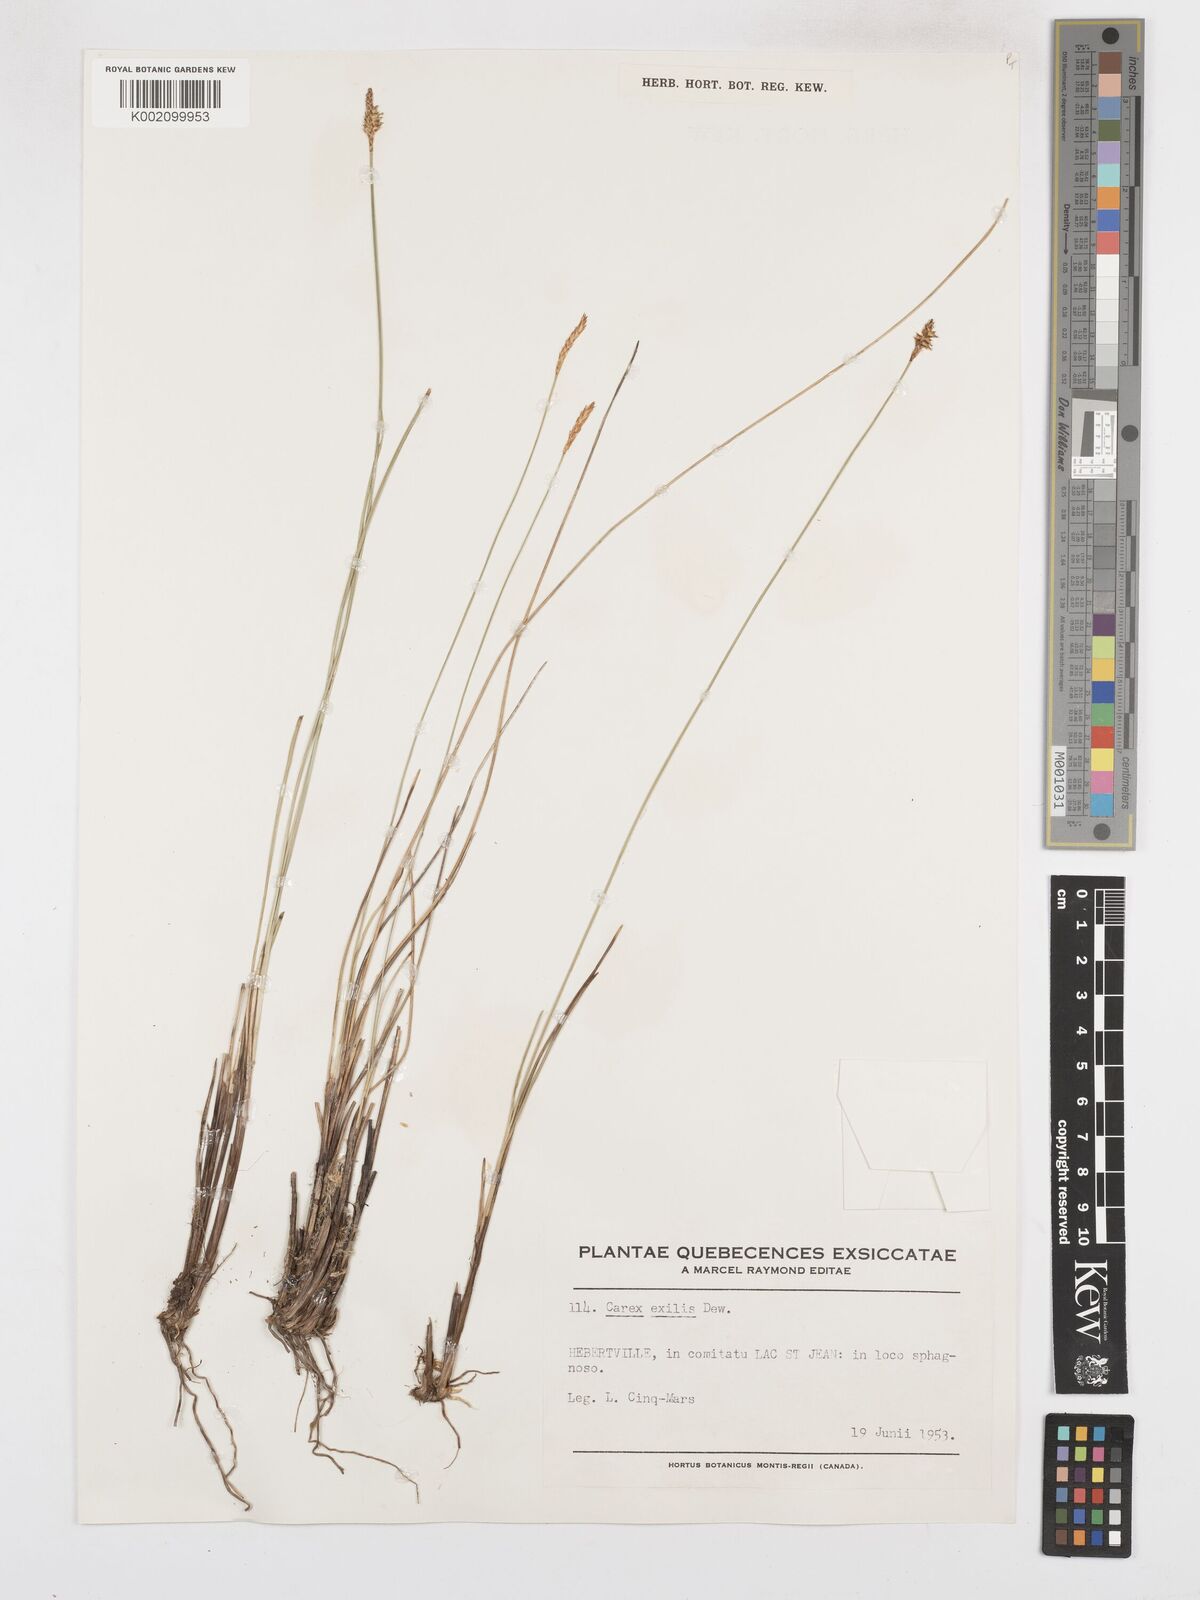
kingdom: Plantae
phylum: Tracheophyta
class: Liliopsida
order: Poales
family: Cyperaceae
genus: Carex
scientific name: Carex exilis
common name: Coastal sedge
